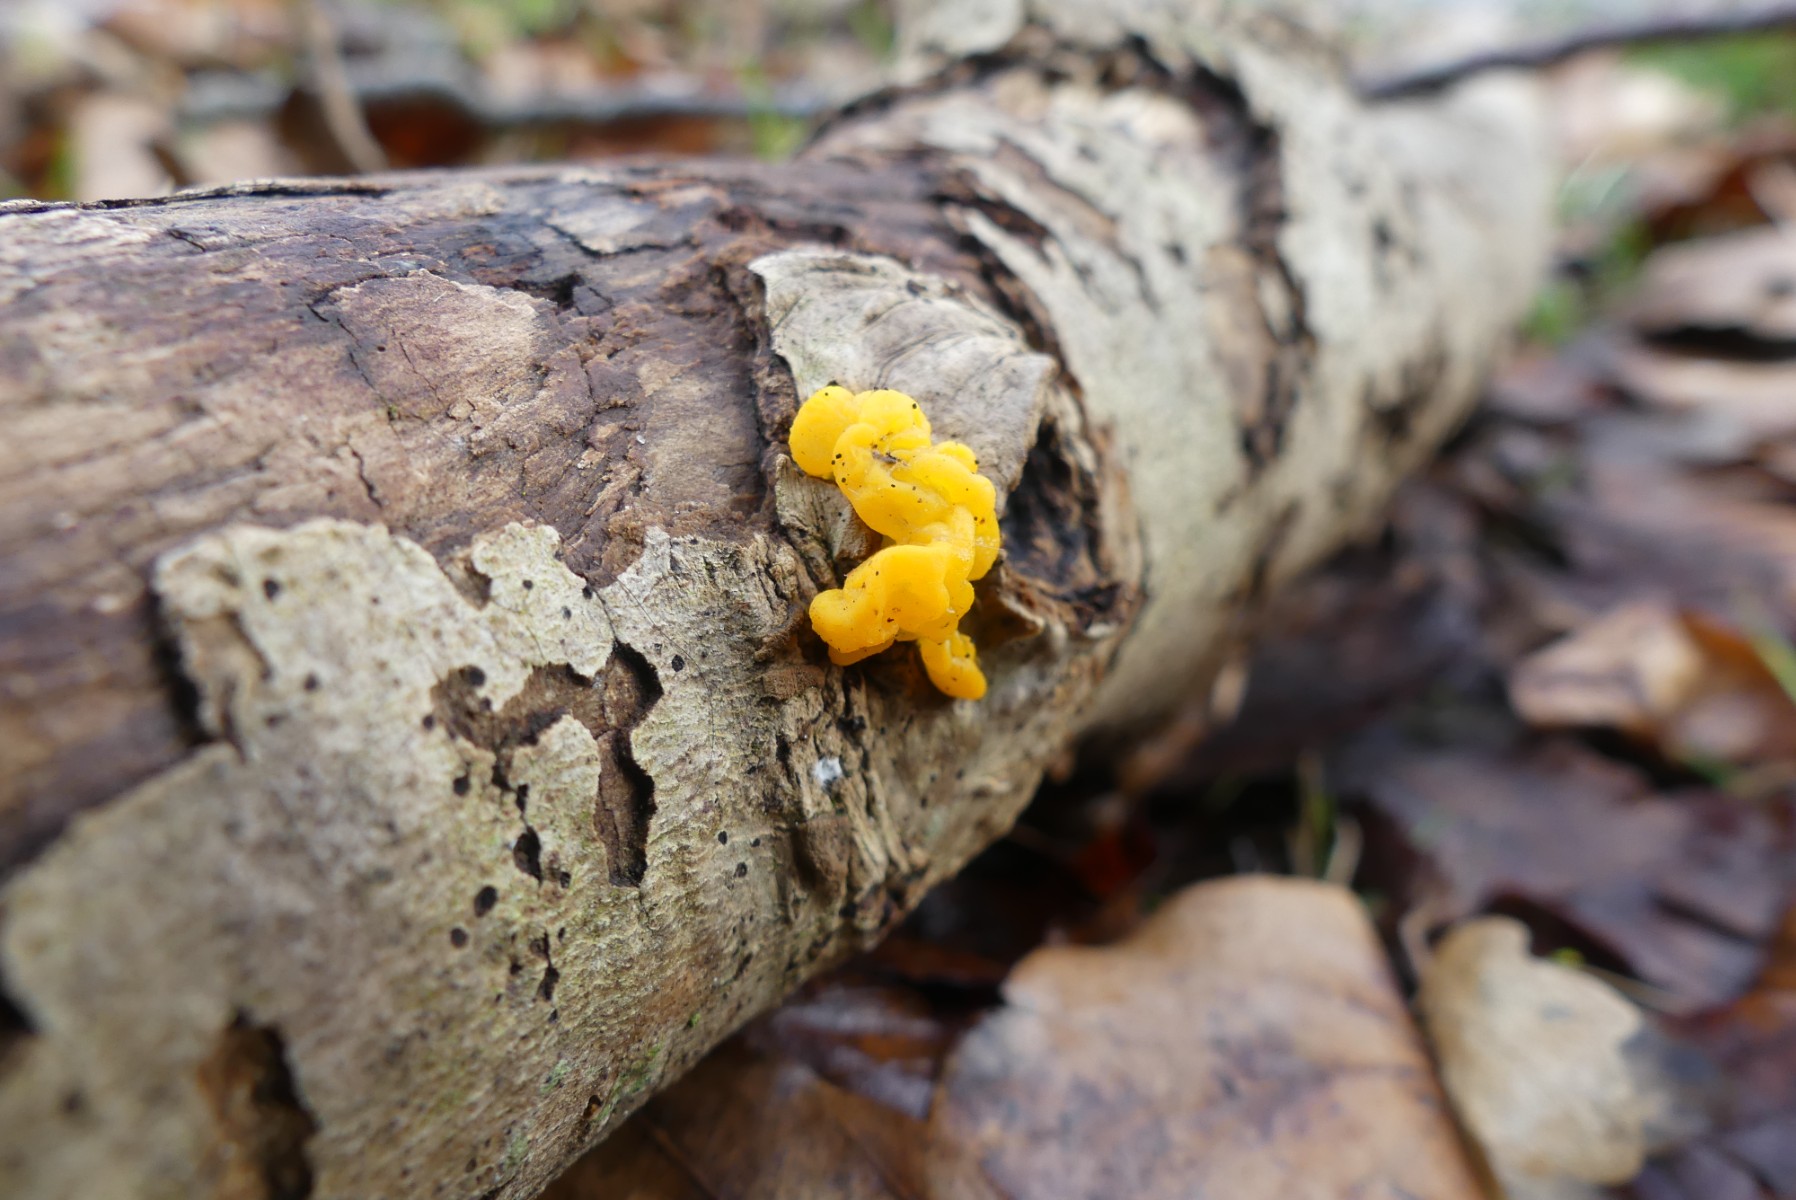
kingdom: Fungi
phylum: Basidiomycota
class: Tremellomycetes
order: Tremellales
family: Tremellaceae
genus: Tremella
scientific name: Tremella mesenterica
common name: gul bævresvamp
